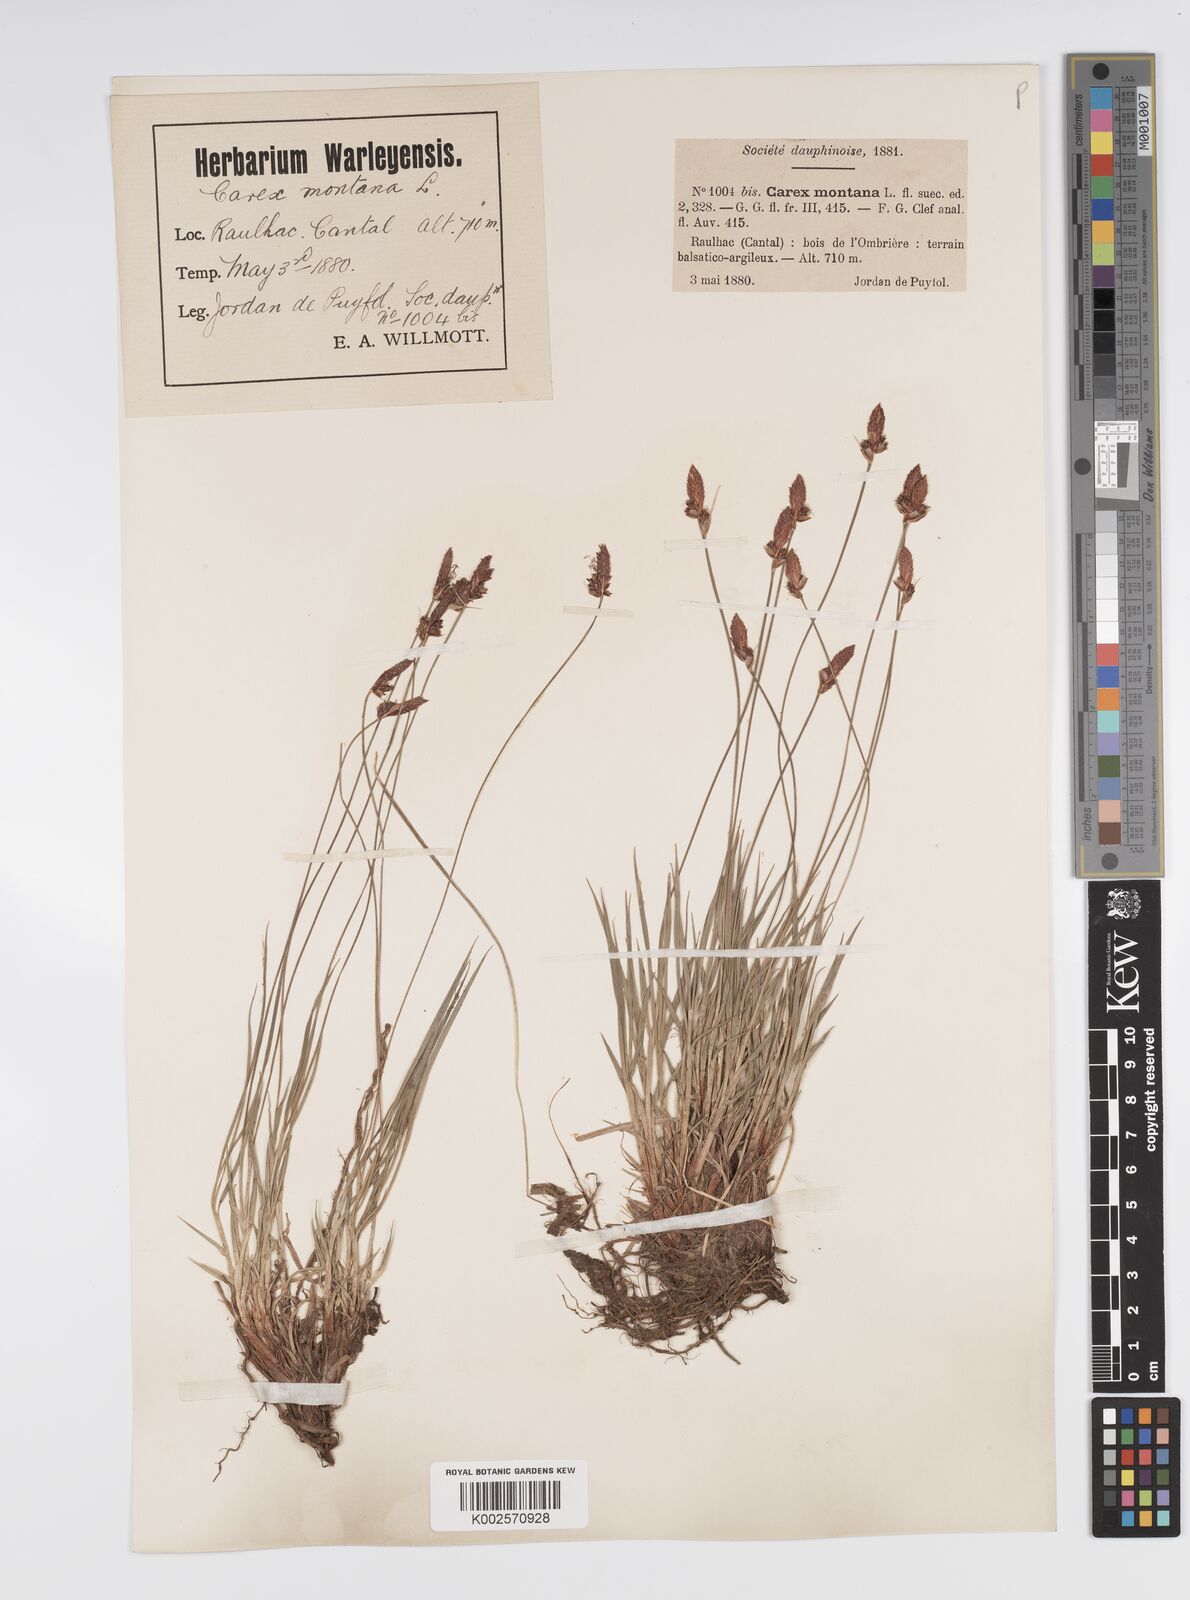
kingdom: Plantae
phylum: Tracheophyta
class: Liliopsida
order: Poales
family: Cyperaceae
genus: Carex
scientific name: Carex montana
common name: Soft-leaved sedge
